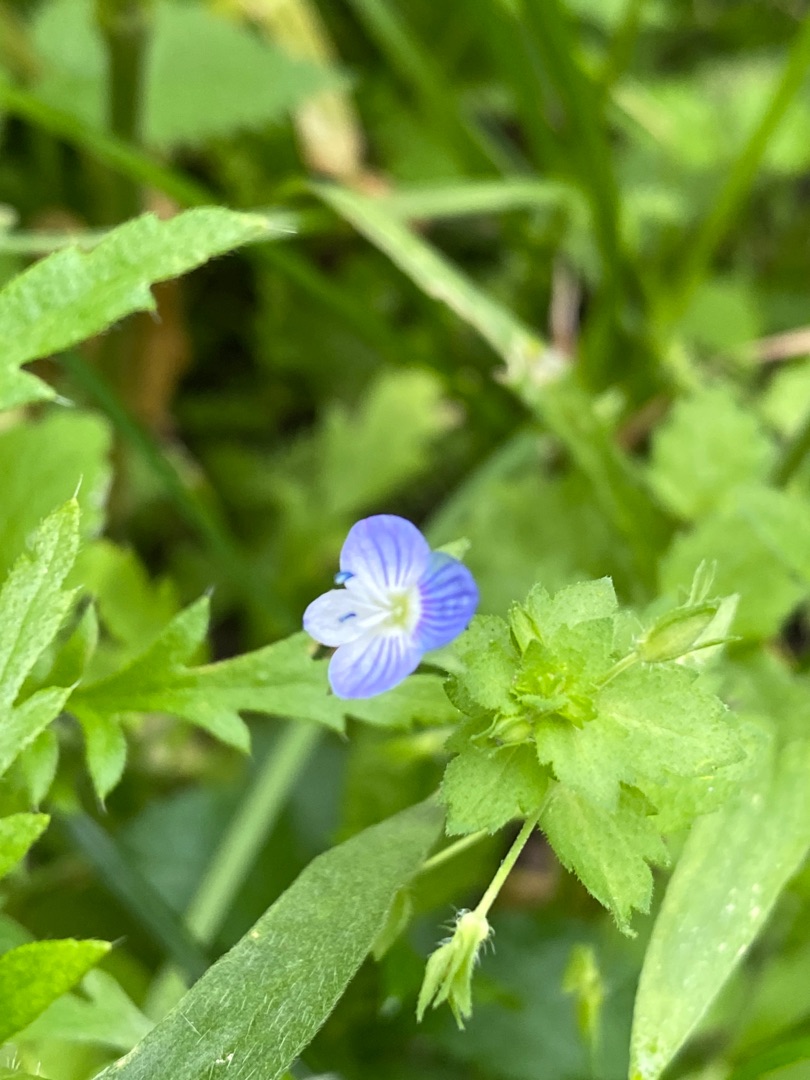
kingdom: Plantae
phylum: Tracheophyta
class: Magnoliopsida
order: Lamiales
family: Plantaginaceae
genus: Veronica
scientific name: Veronica persica
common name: Storkronet ærenpris
